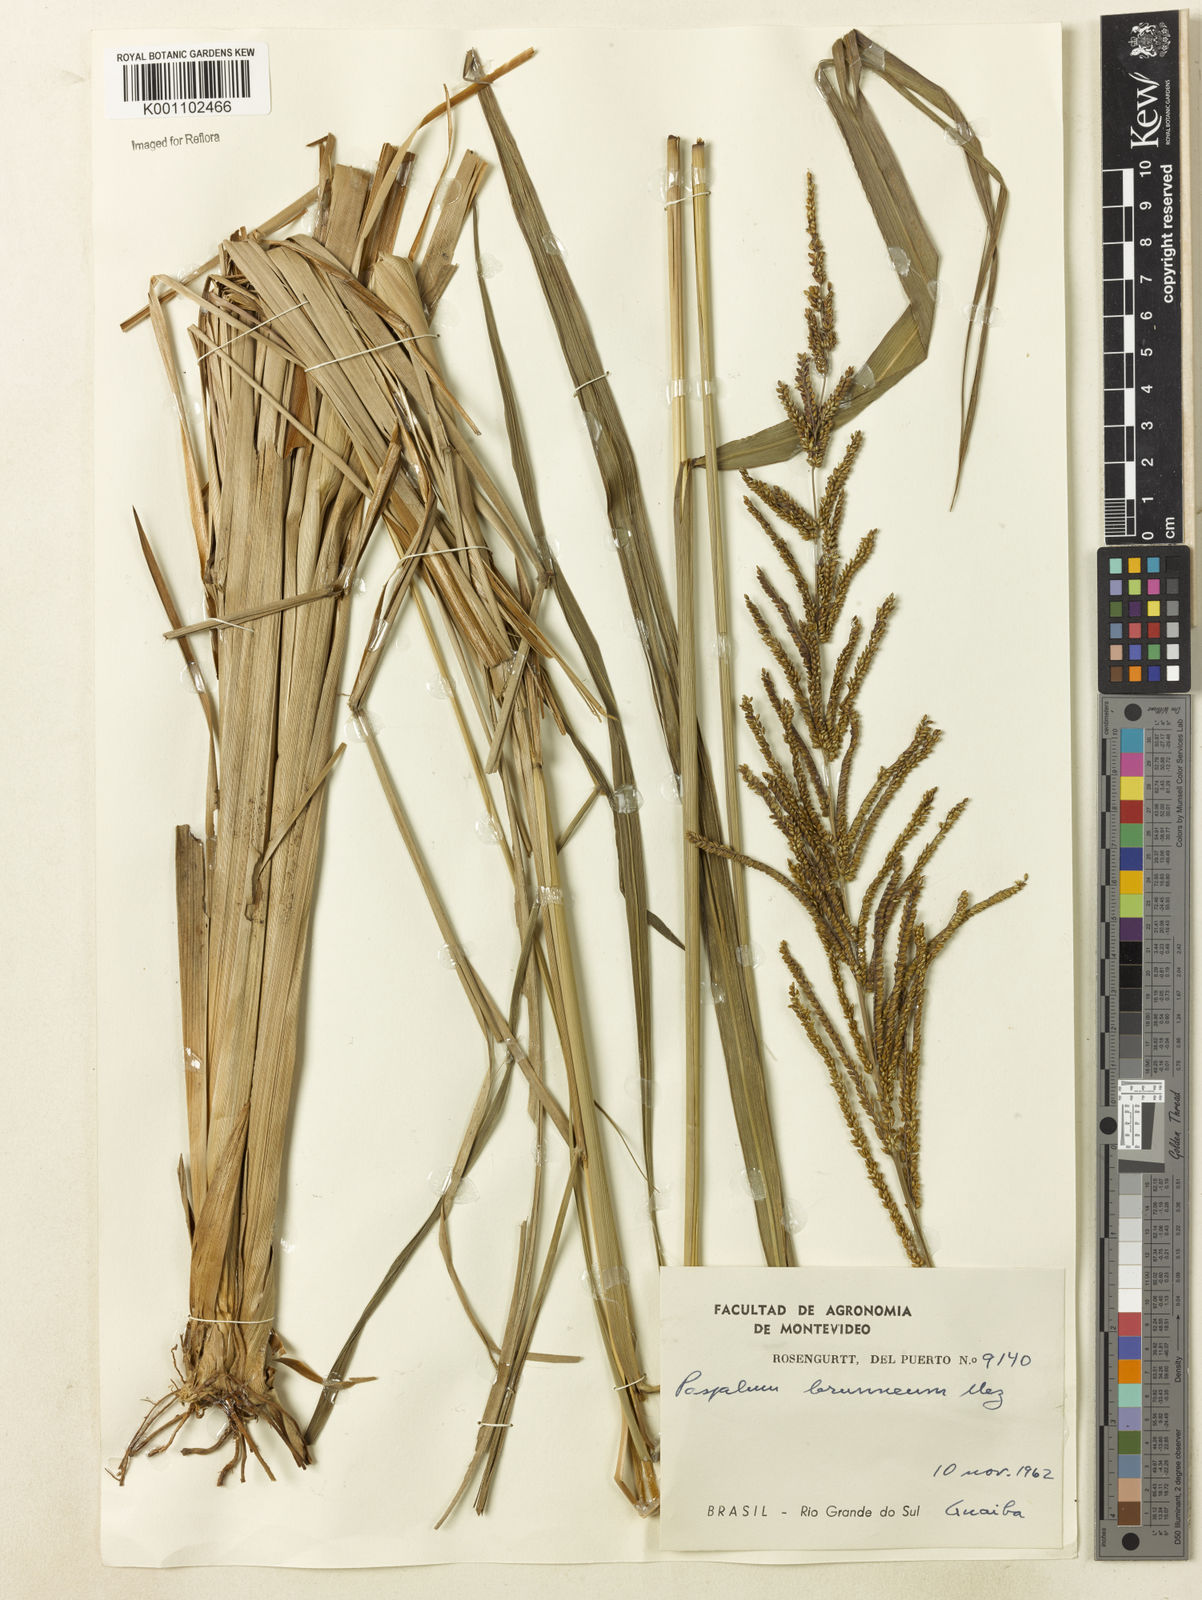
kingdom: Plantae
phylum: Tracheophyta
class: Liliopsida
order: Poales
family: Poaceae
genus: Paspalum
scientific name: Paspalum coryphaeum
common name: Emperor crowngrass
